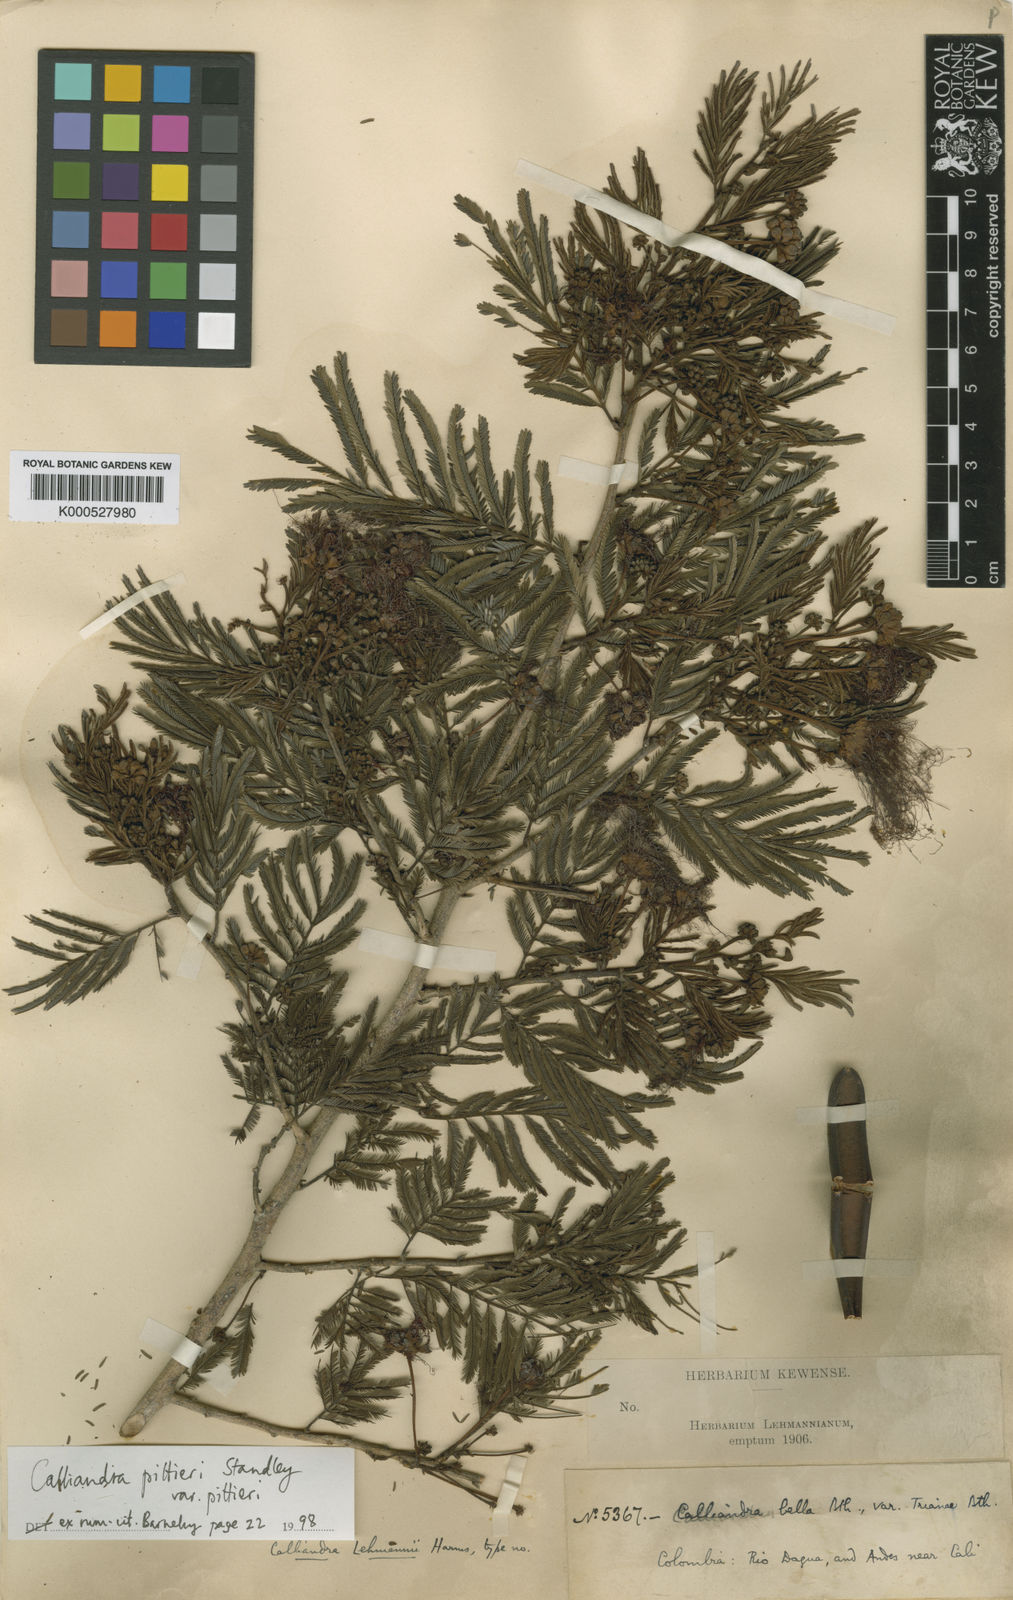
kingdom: Plantae
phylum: Tracheophyta
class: Magnoliopsida
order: Fabales
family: Fabaceae
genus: Calliandra
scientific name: Calliandra pittieri
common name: Carbonero de avenidas
